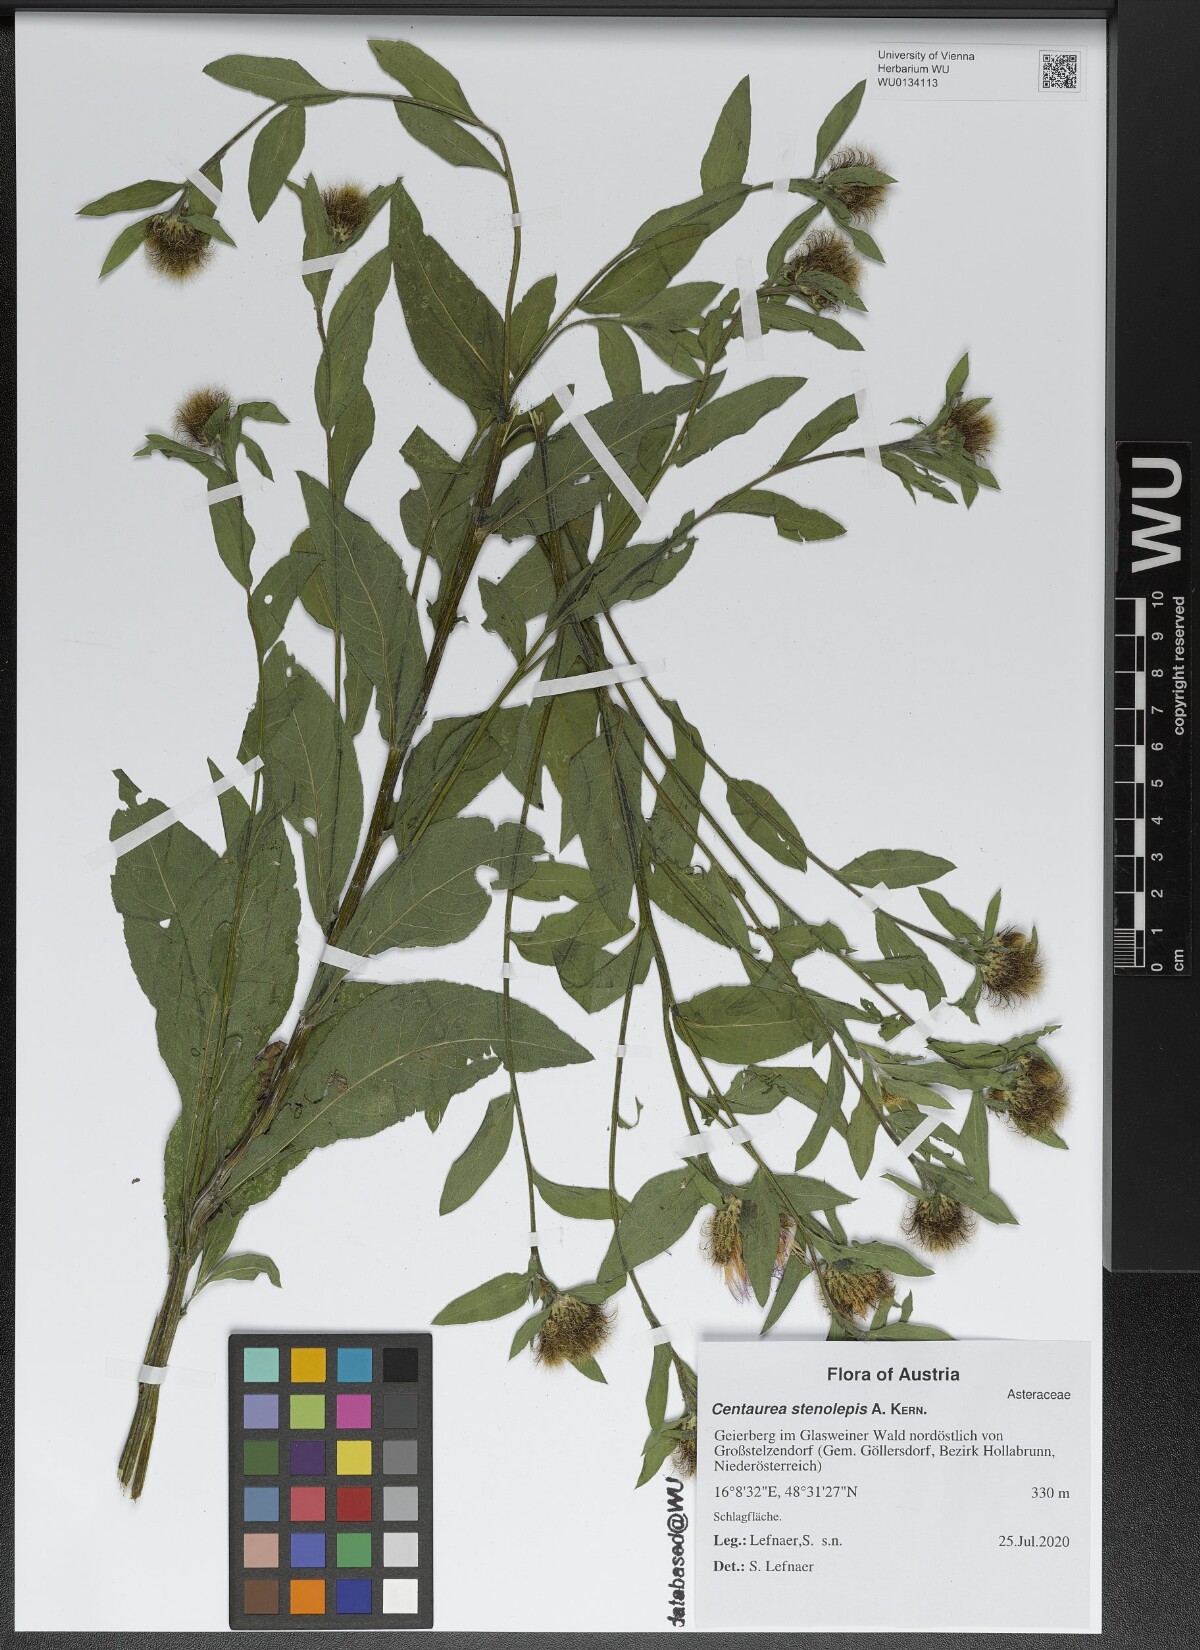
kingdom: Plantae
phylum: Tracheophyta
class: Magnoliopsida
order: Asterales
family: Asteraceae
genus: Centaurea
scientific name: Centaurea stenolepis
